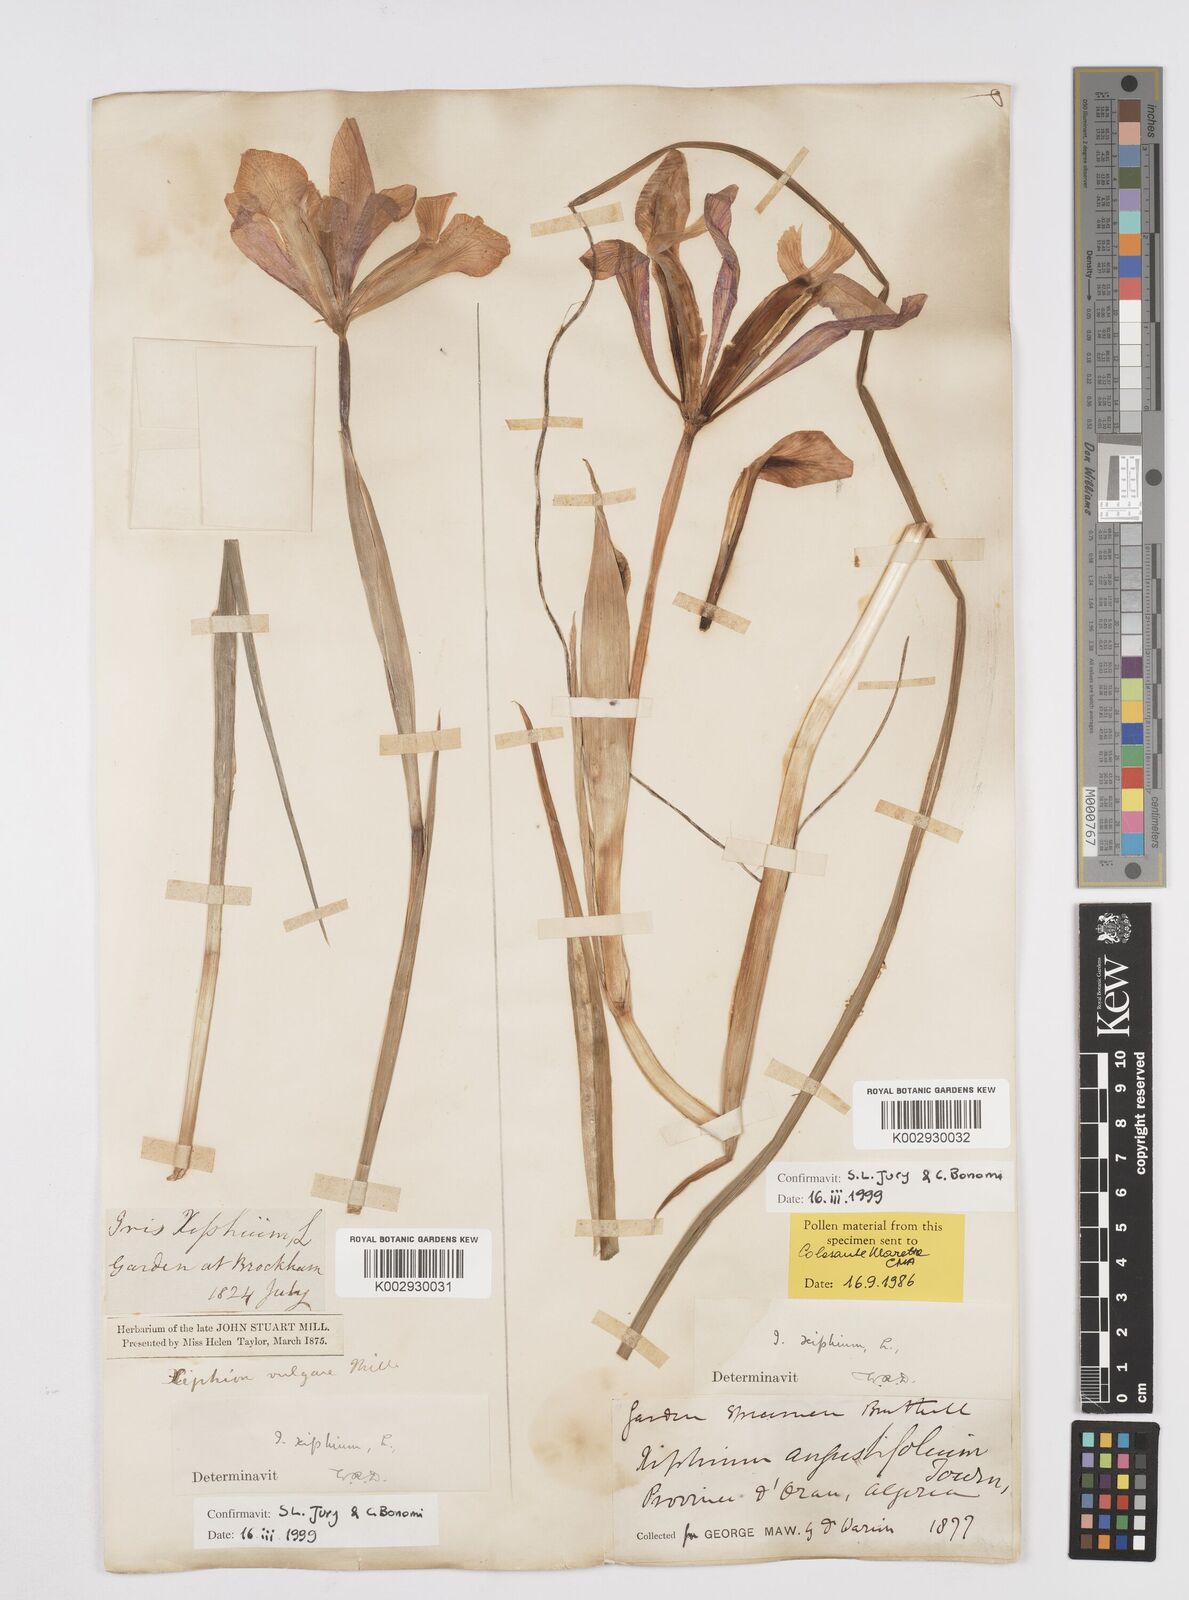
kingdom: Plantae
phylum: Tracheophyta
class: Liliopsida
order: Asparagales
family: Iridaceae
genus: Iris
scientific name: Iris xiphium
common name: Spanish iris
